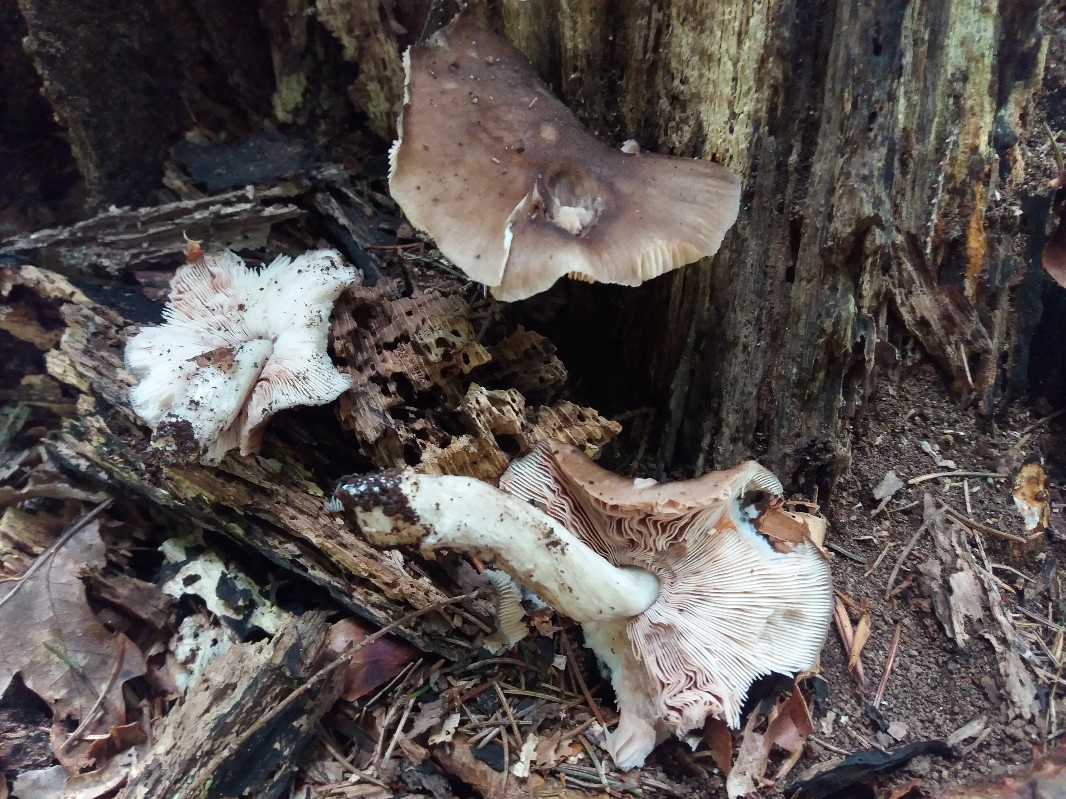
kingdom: Fungi
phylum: Basidiomycota
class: Agaricomycetes
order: Agaricales
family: Pluteaceae
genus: Pluteus
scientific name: Pluteus cervinus
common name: sodfarvet skærmhat
